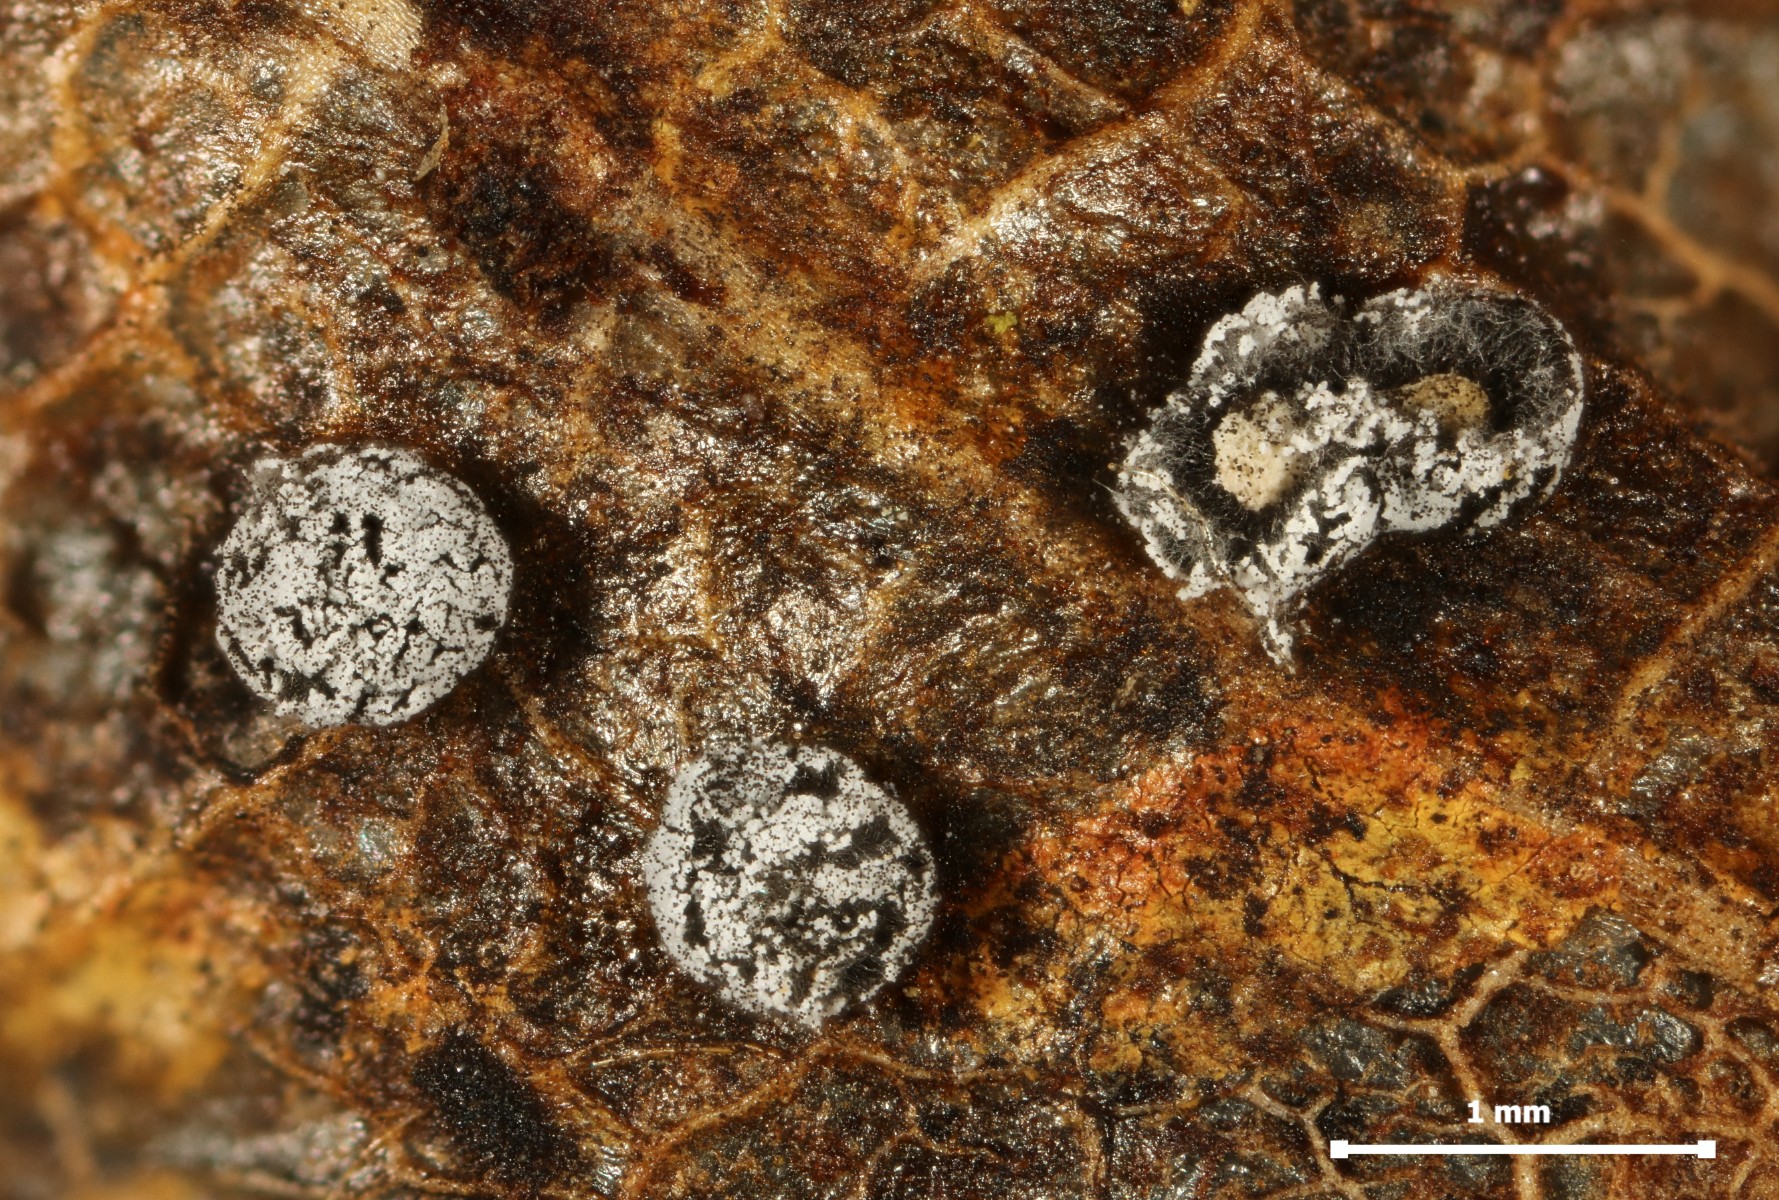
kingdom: Protozoa
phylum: Mycetozoa
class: Myxomycetes
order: Physarales
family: Didymiaceae
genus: Didymium
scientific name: Didymium squamulosum
